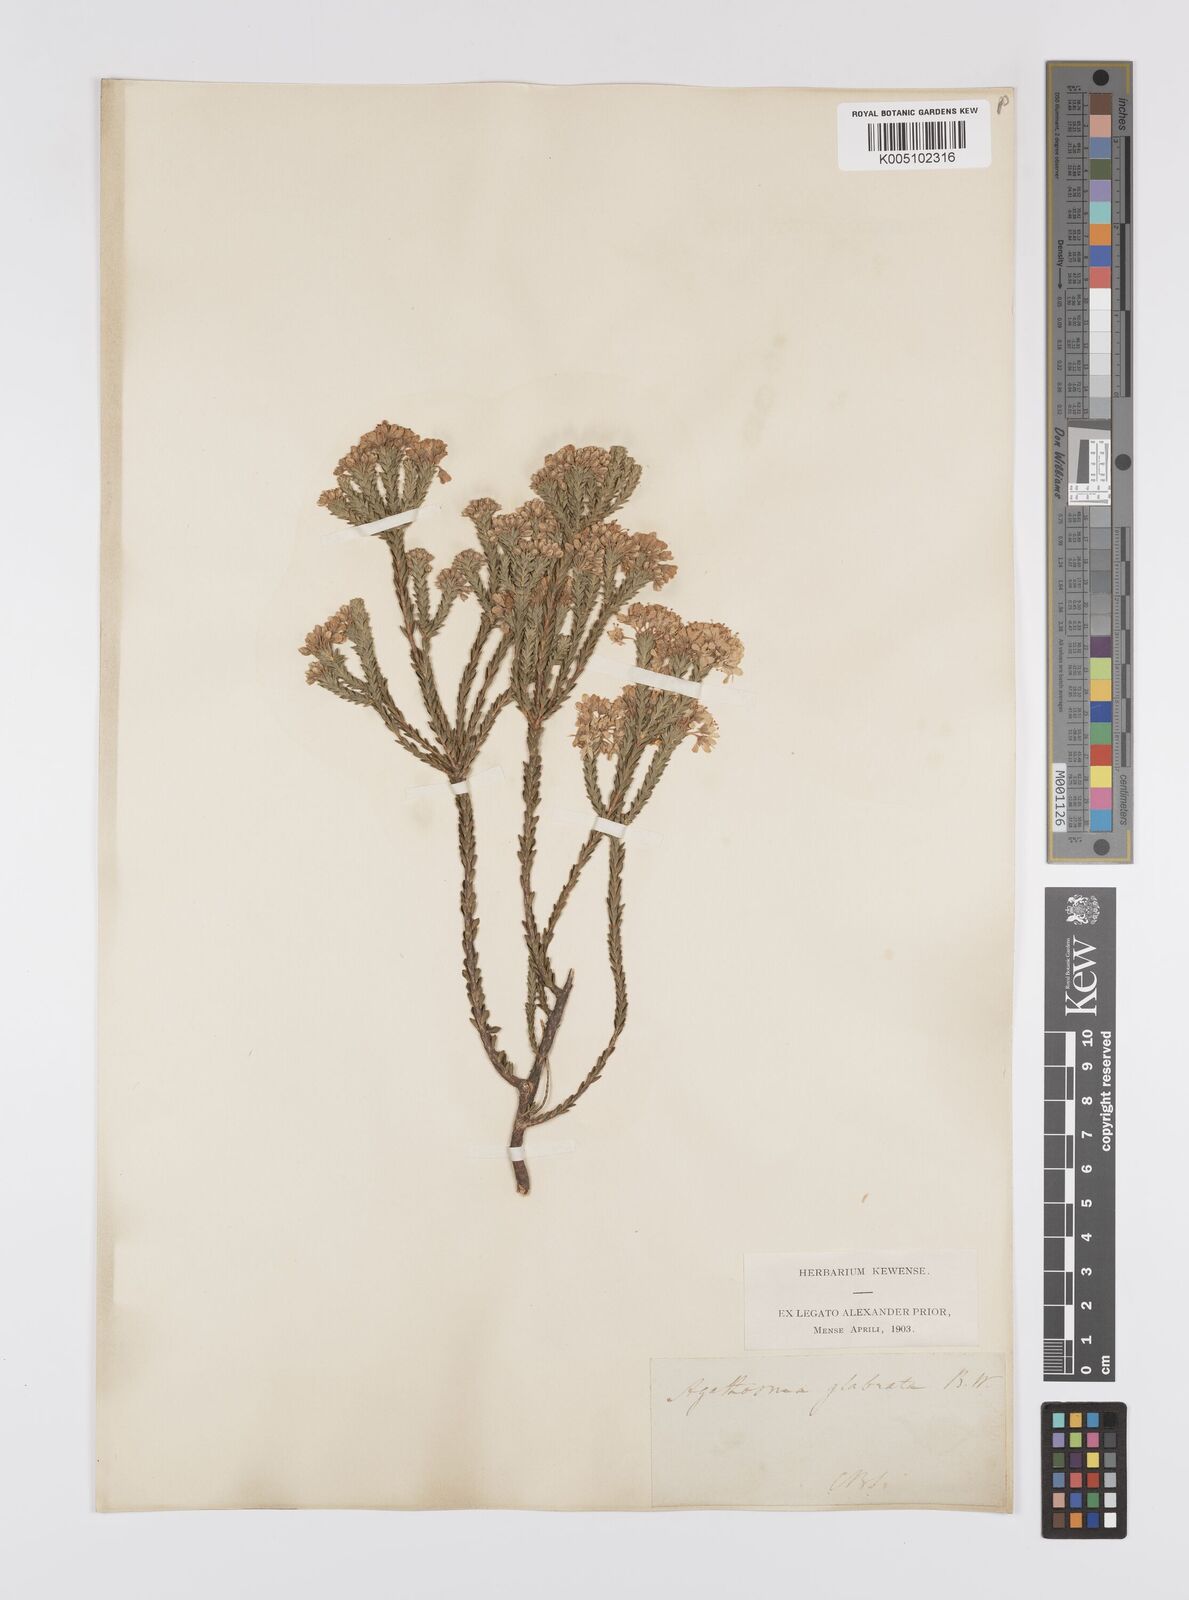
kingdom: Plantae
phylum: Tracheophyta
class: Magnoliopsida
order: Sapindales
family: Rutaceae
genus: Agathosma
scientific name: Agathosma
